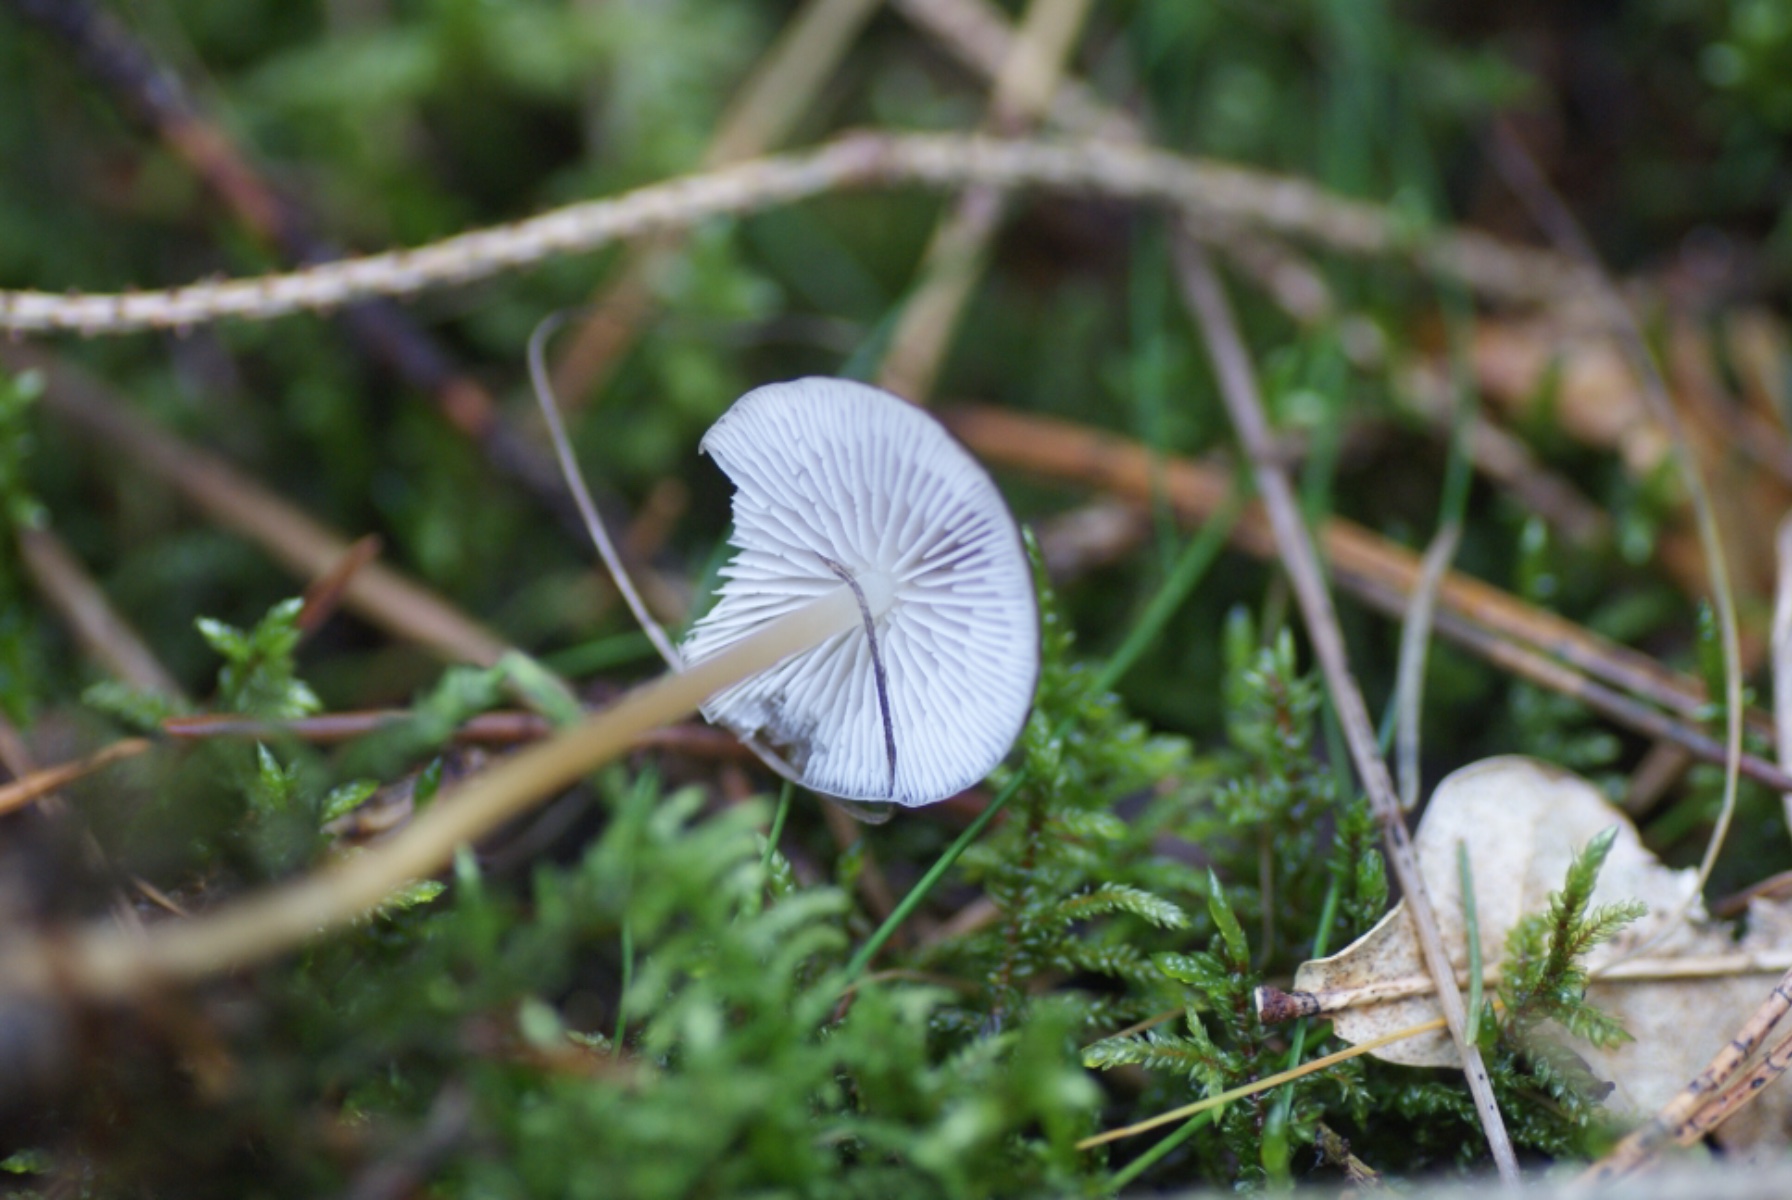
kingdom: Fungi
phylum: Basidiomycota
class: Agaricomycetes
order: Agaricales
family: Physalacriaceae
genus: Strobilurus
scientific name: Strobilurus esculentus
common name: gran-koglehat
